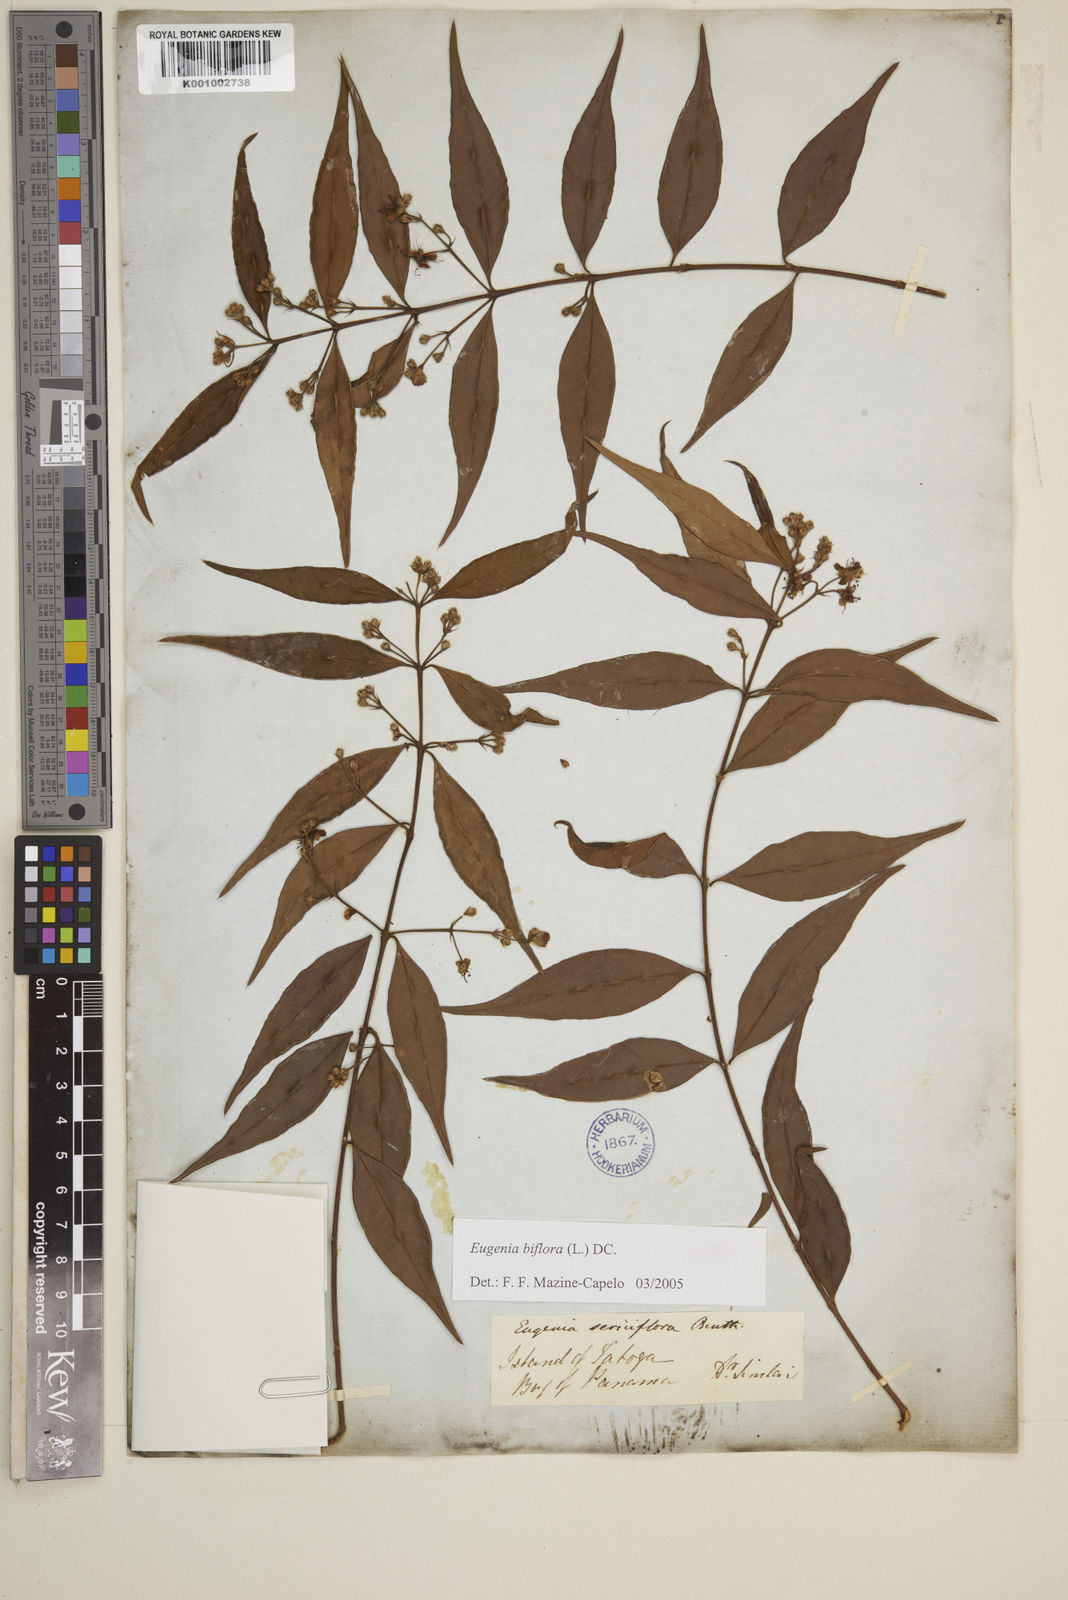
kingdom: Plantae
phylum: Tracheophyta
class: Magnoliopsida
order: Myrtales
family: Myrtaceae
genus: Eugenia
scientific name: Eugenia biflora
